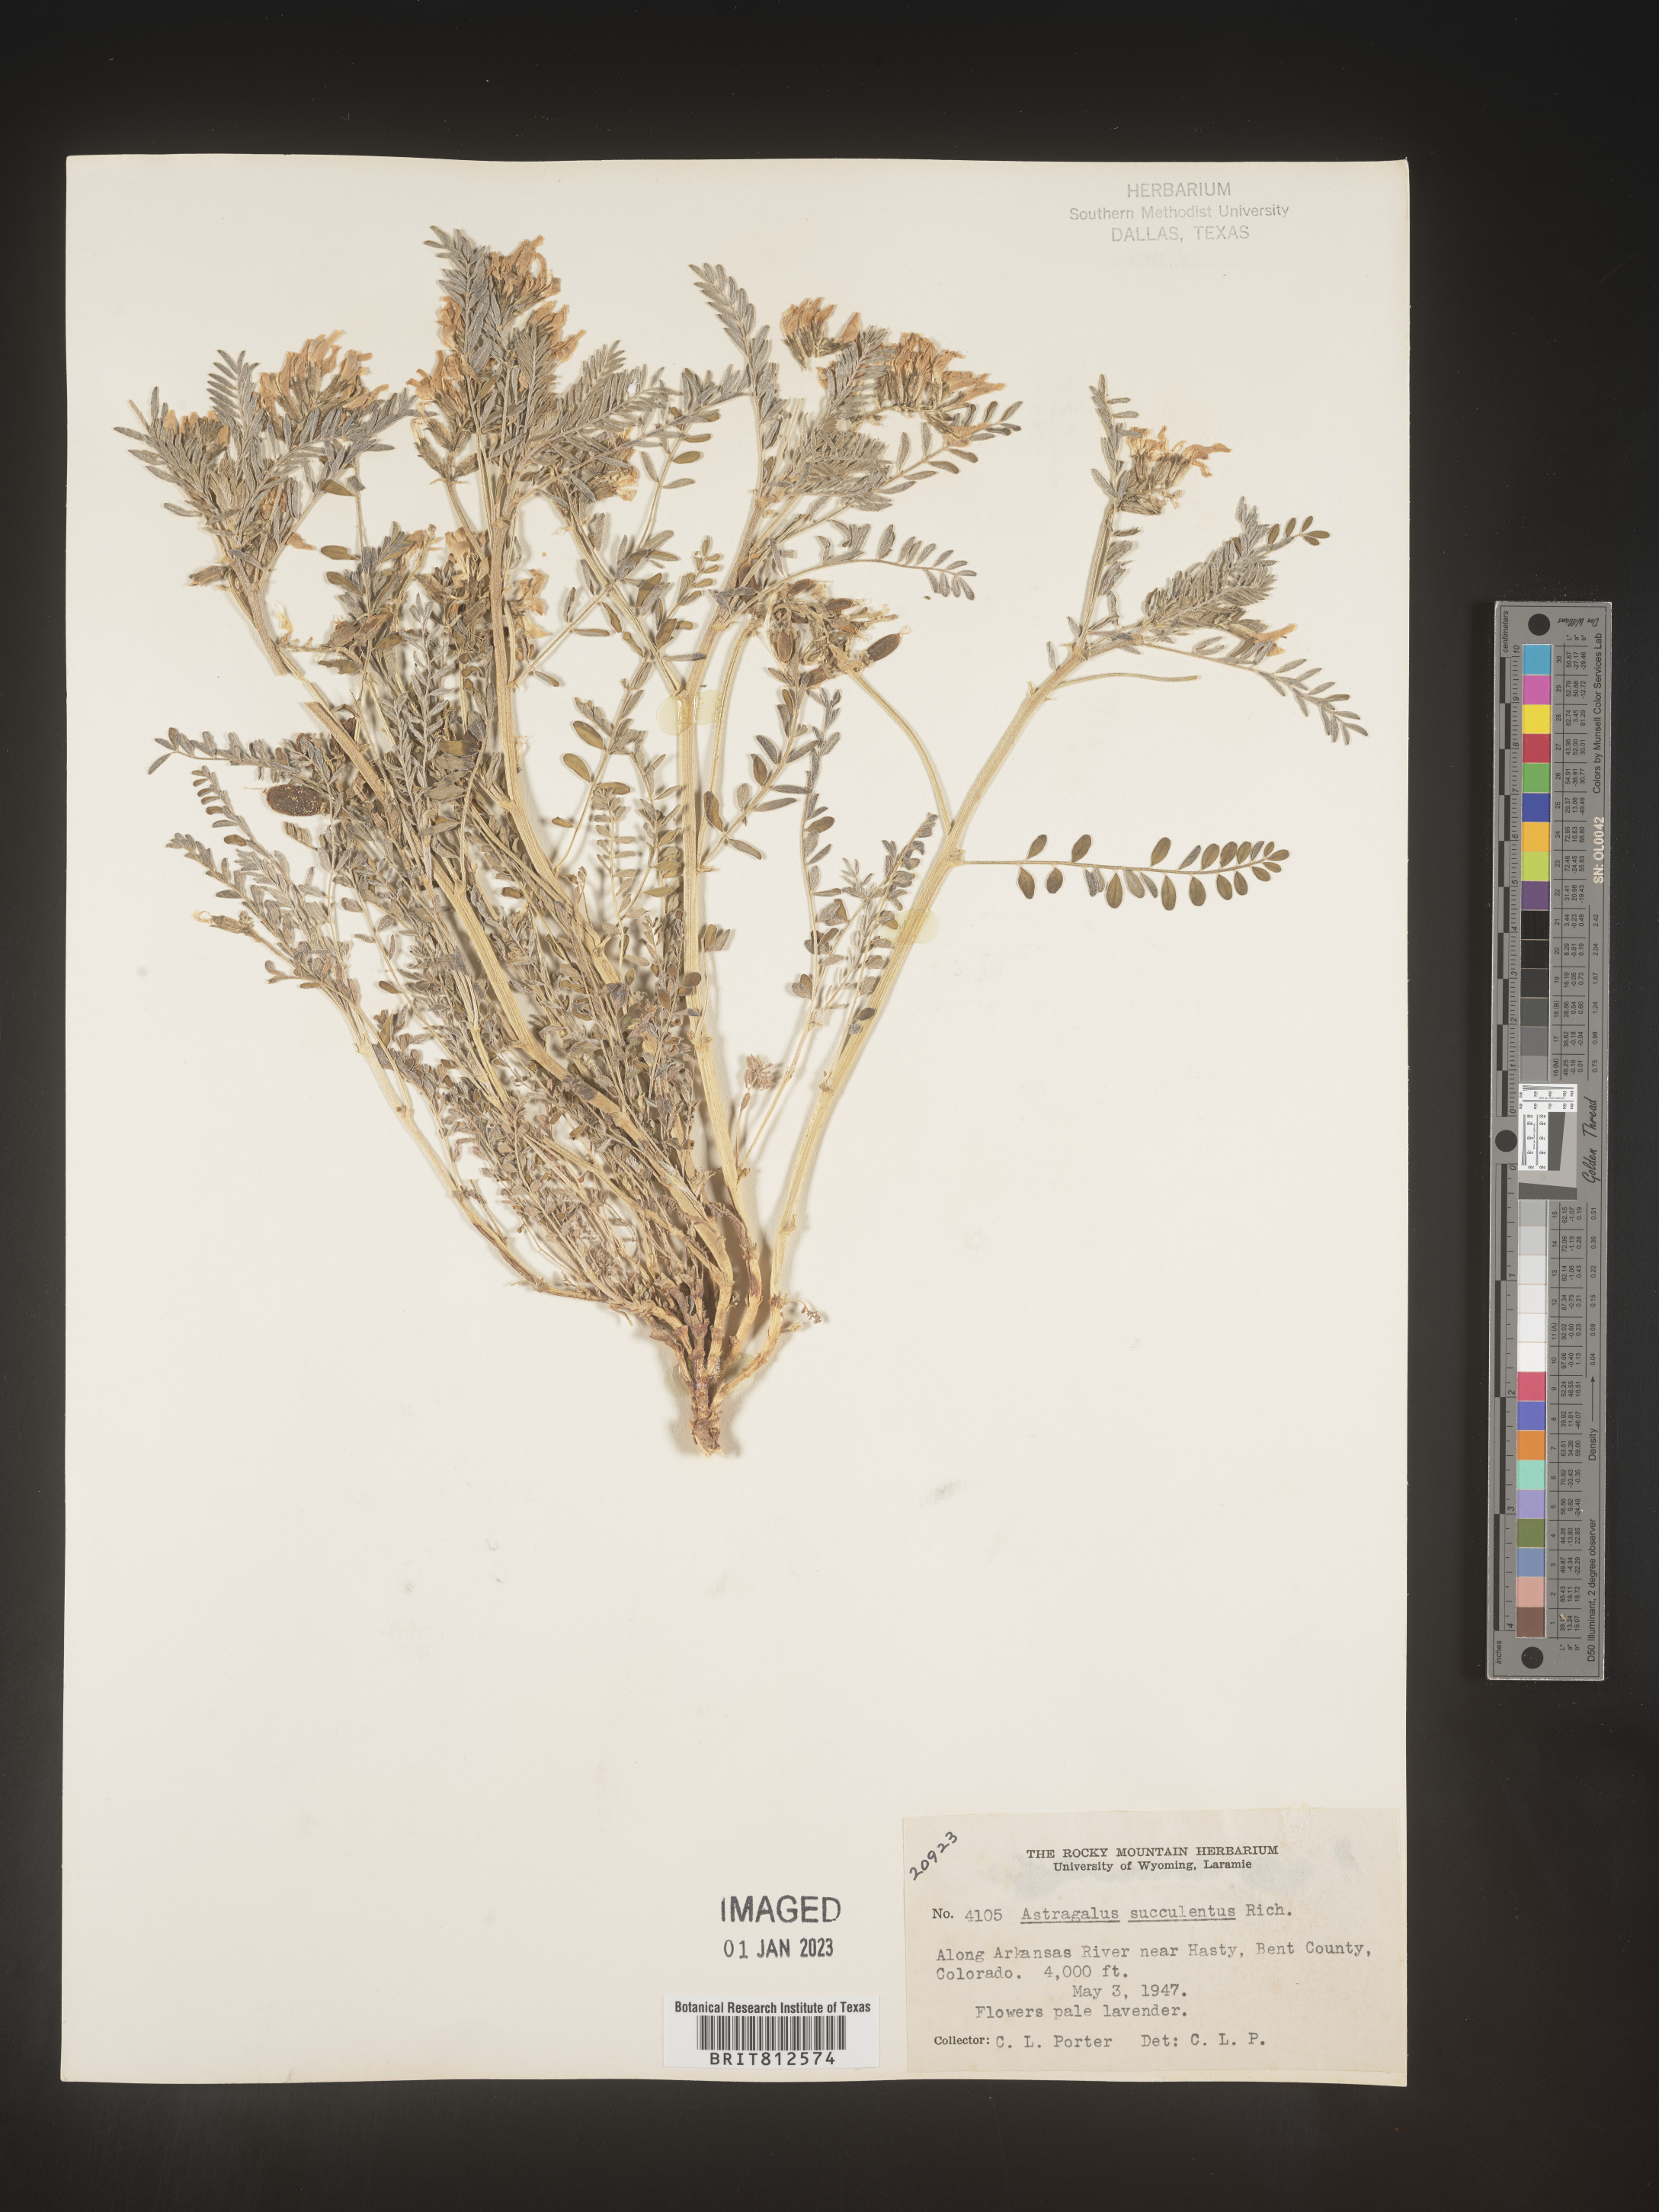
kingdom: Plantae
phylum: Tracheophyta
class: Magnoliopsida
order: Fabales
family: Fabaceae
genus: Astragalus
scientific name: Astragalus
